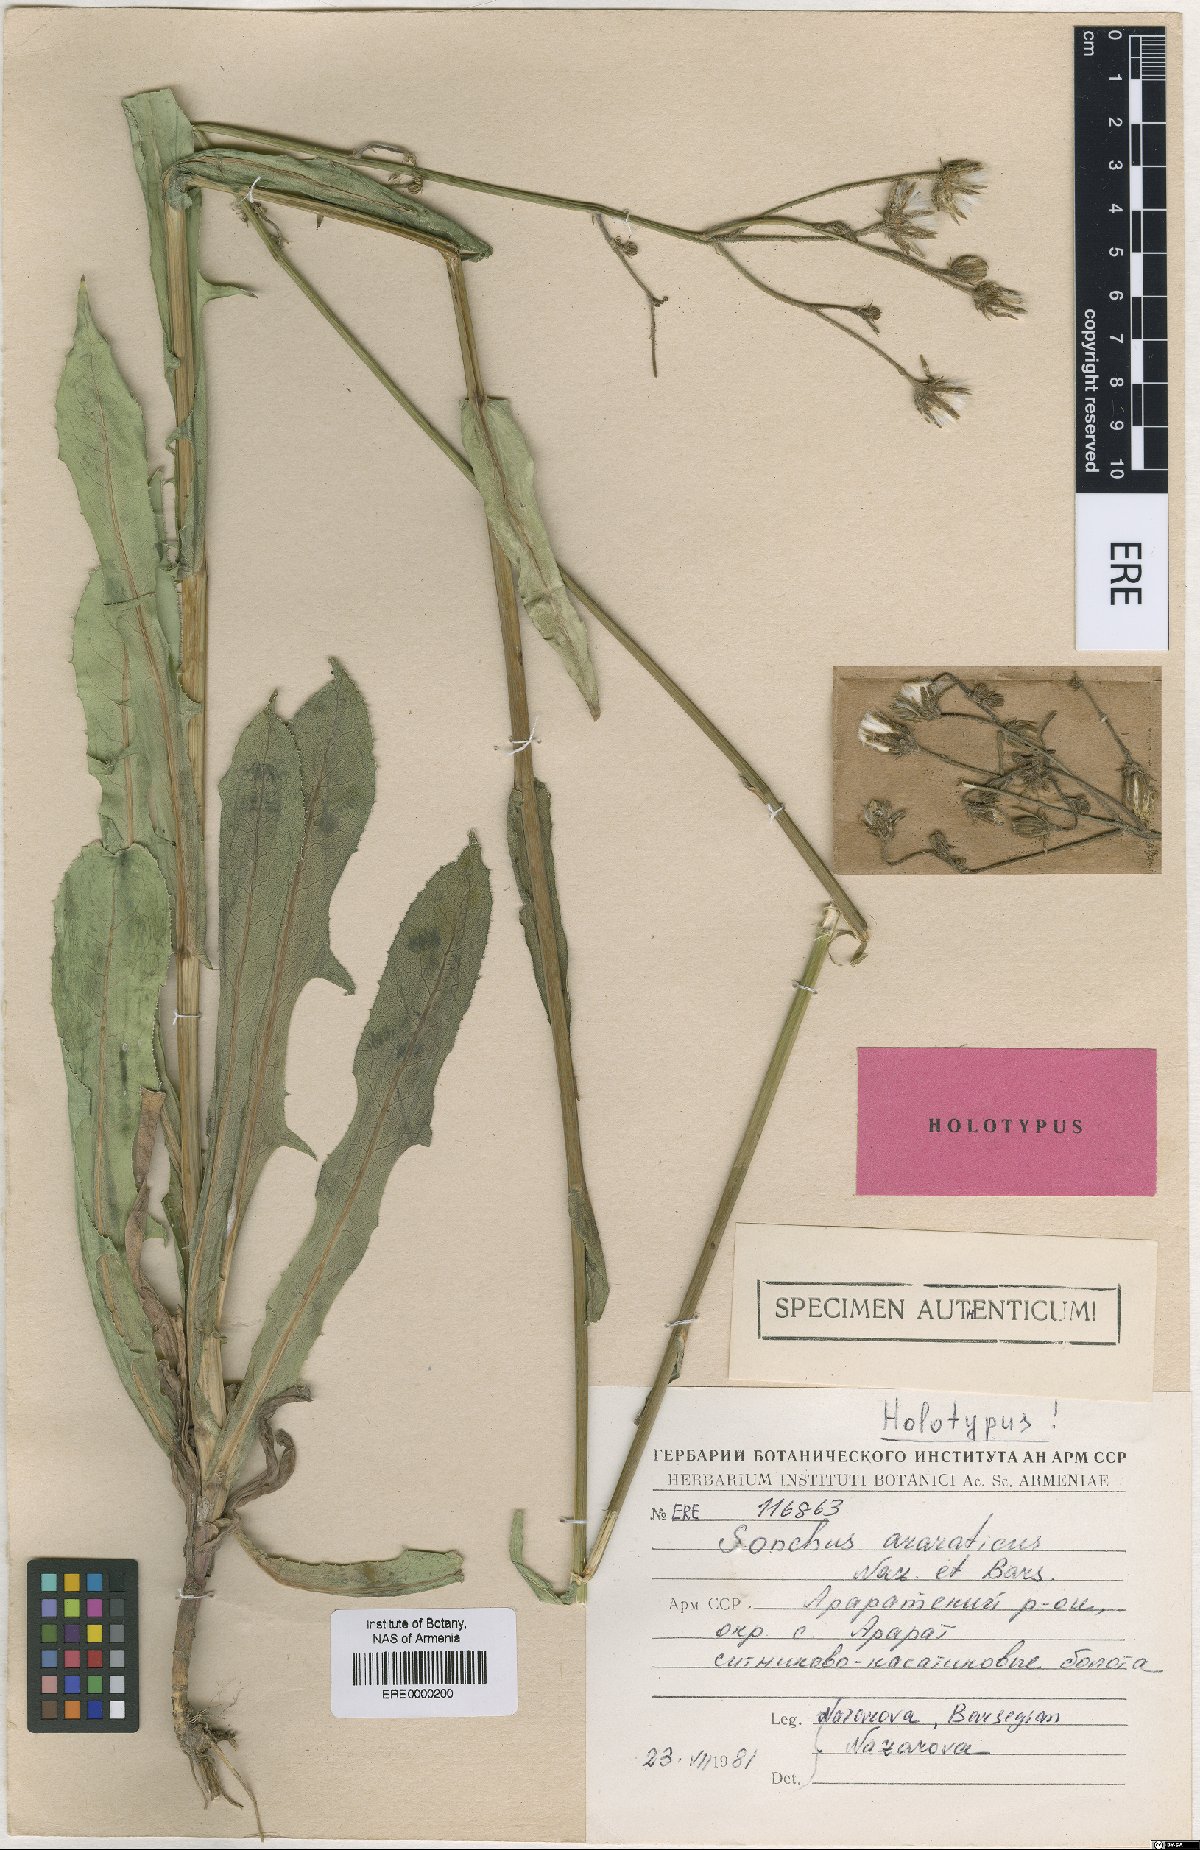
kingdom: Plantae
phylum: Tracheophyta
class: Magnoliopsida
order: Asterales
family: Asteraceae
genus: Sonchus
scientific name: Sonchus araraticus
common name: Araratian sow-thistle
